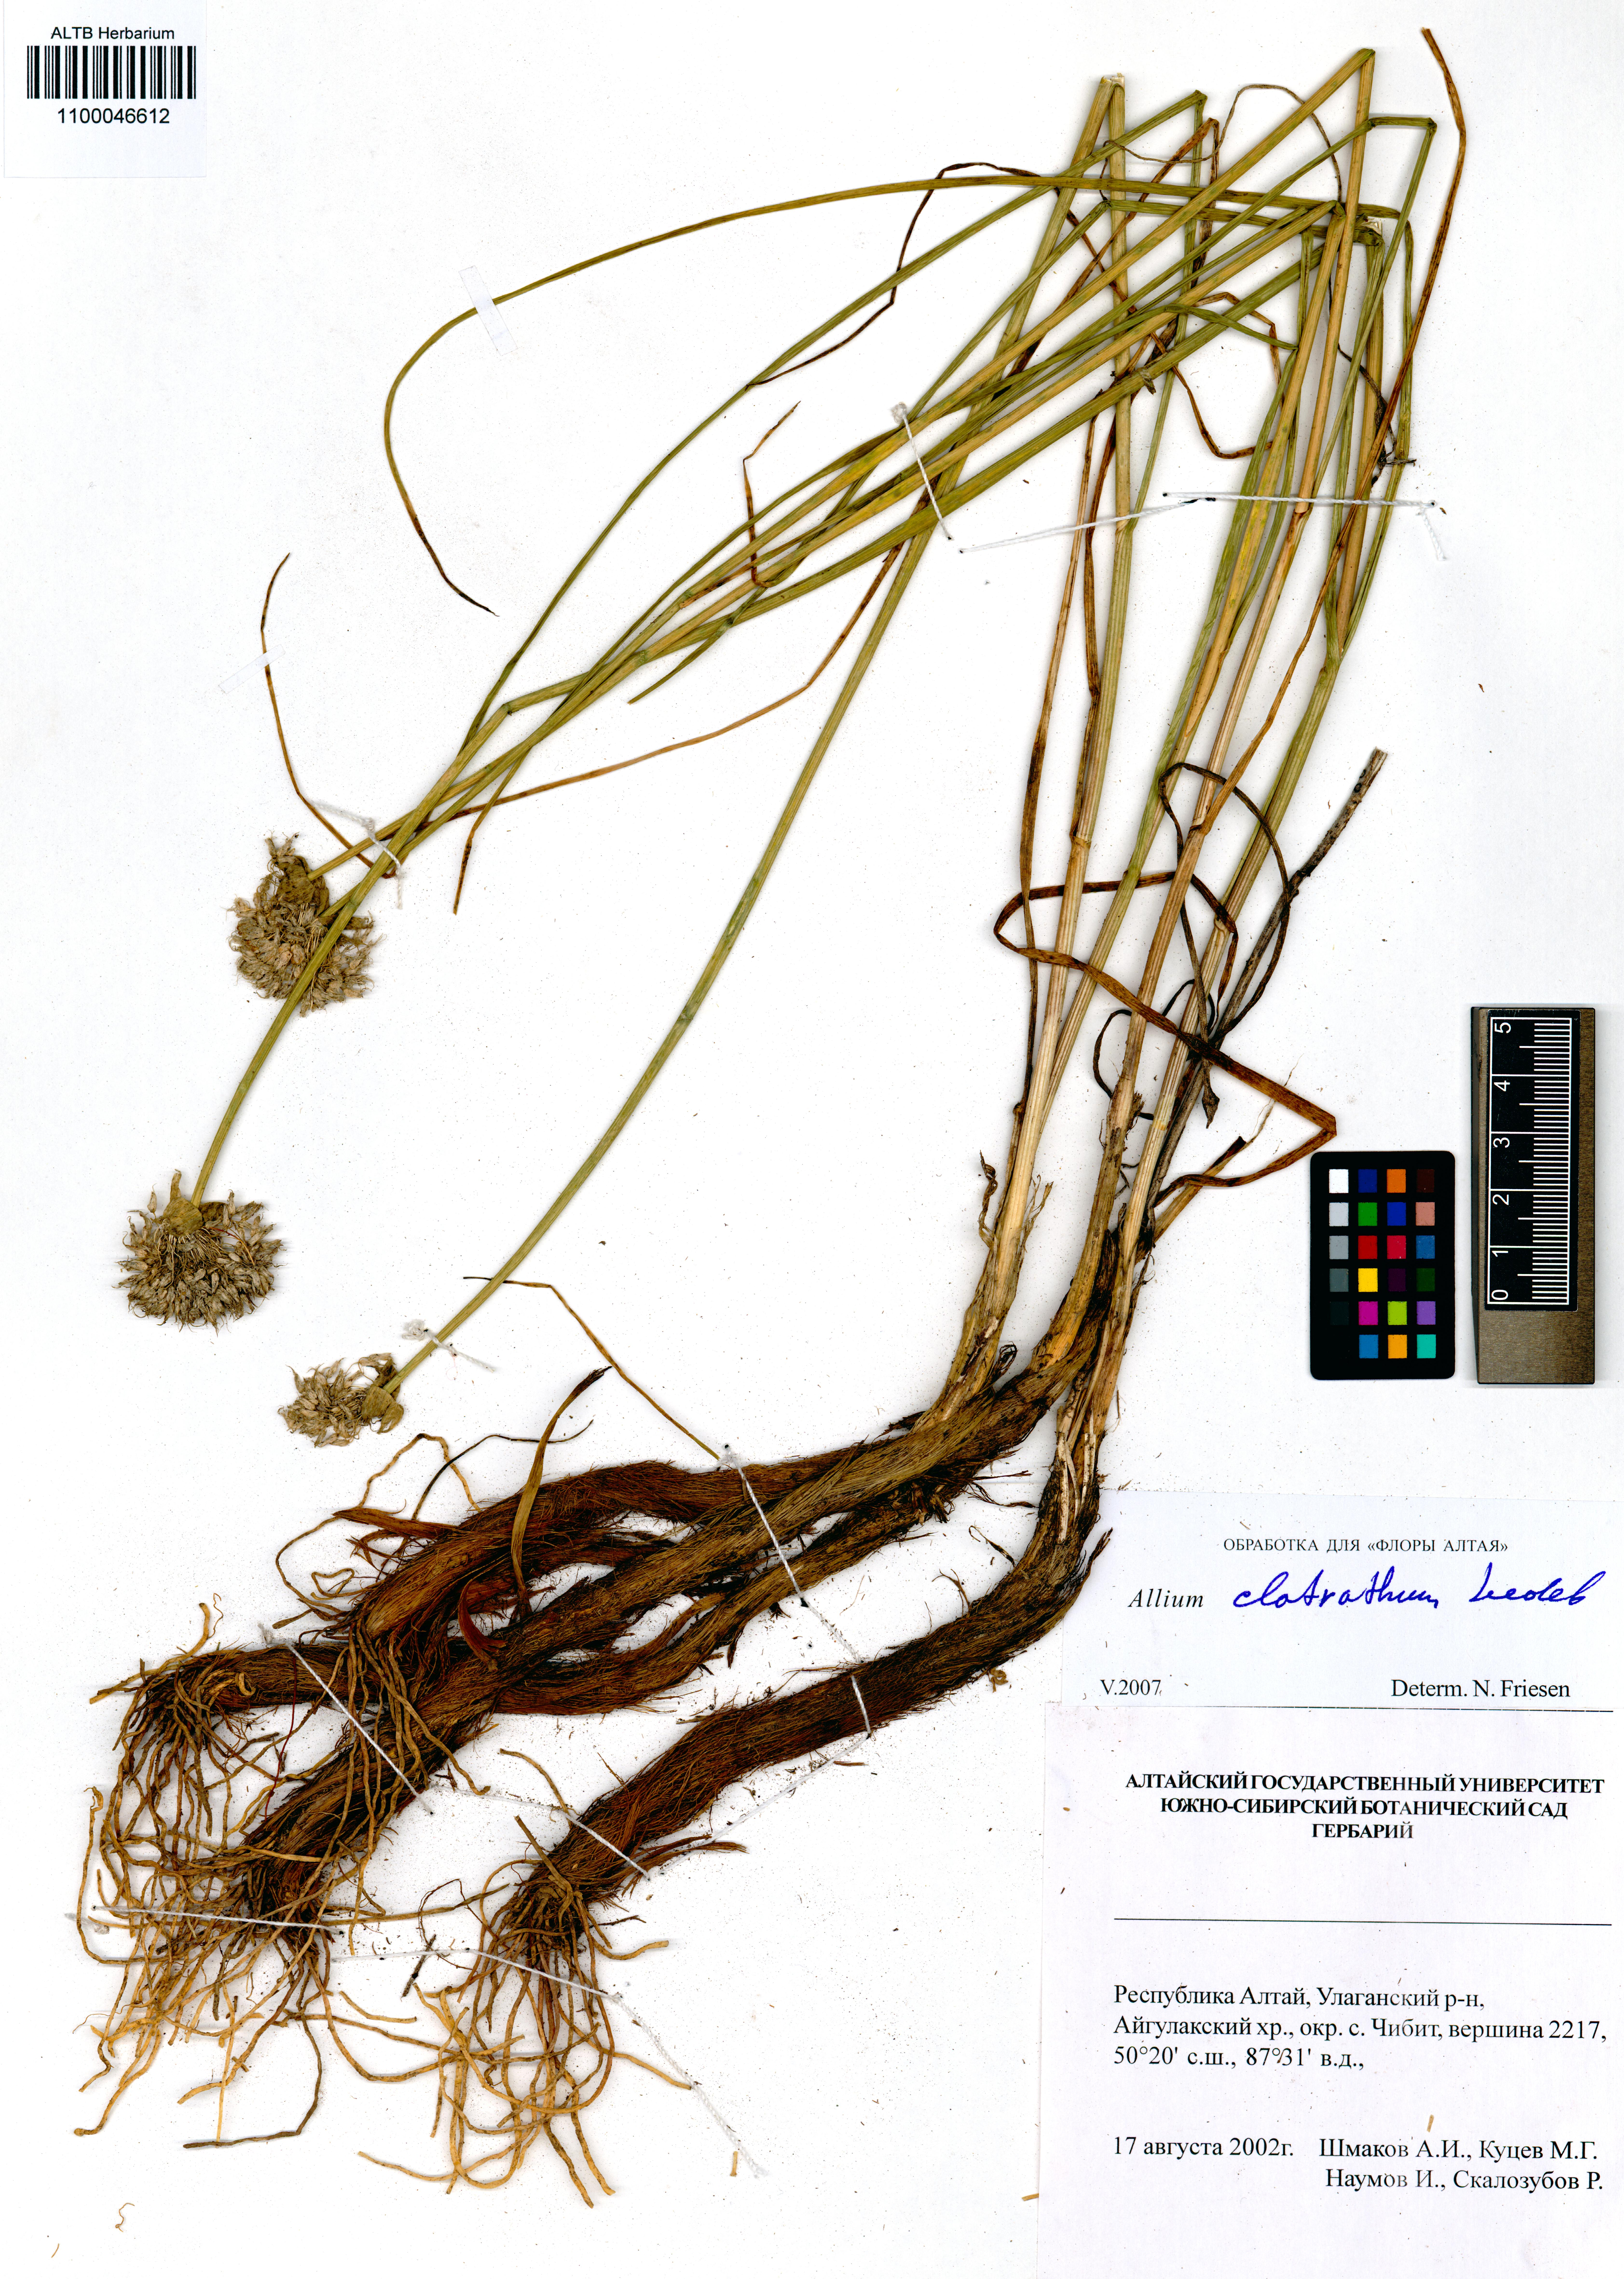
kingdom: Plantae
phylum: Tracheophyta
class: Liliopsida
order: Asparagales
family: Amaryllidaceae
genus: Allium
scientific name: Allium clathratum
